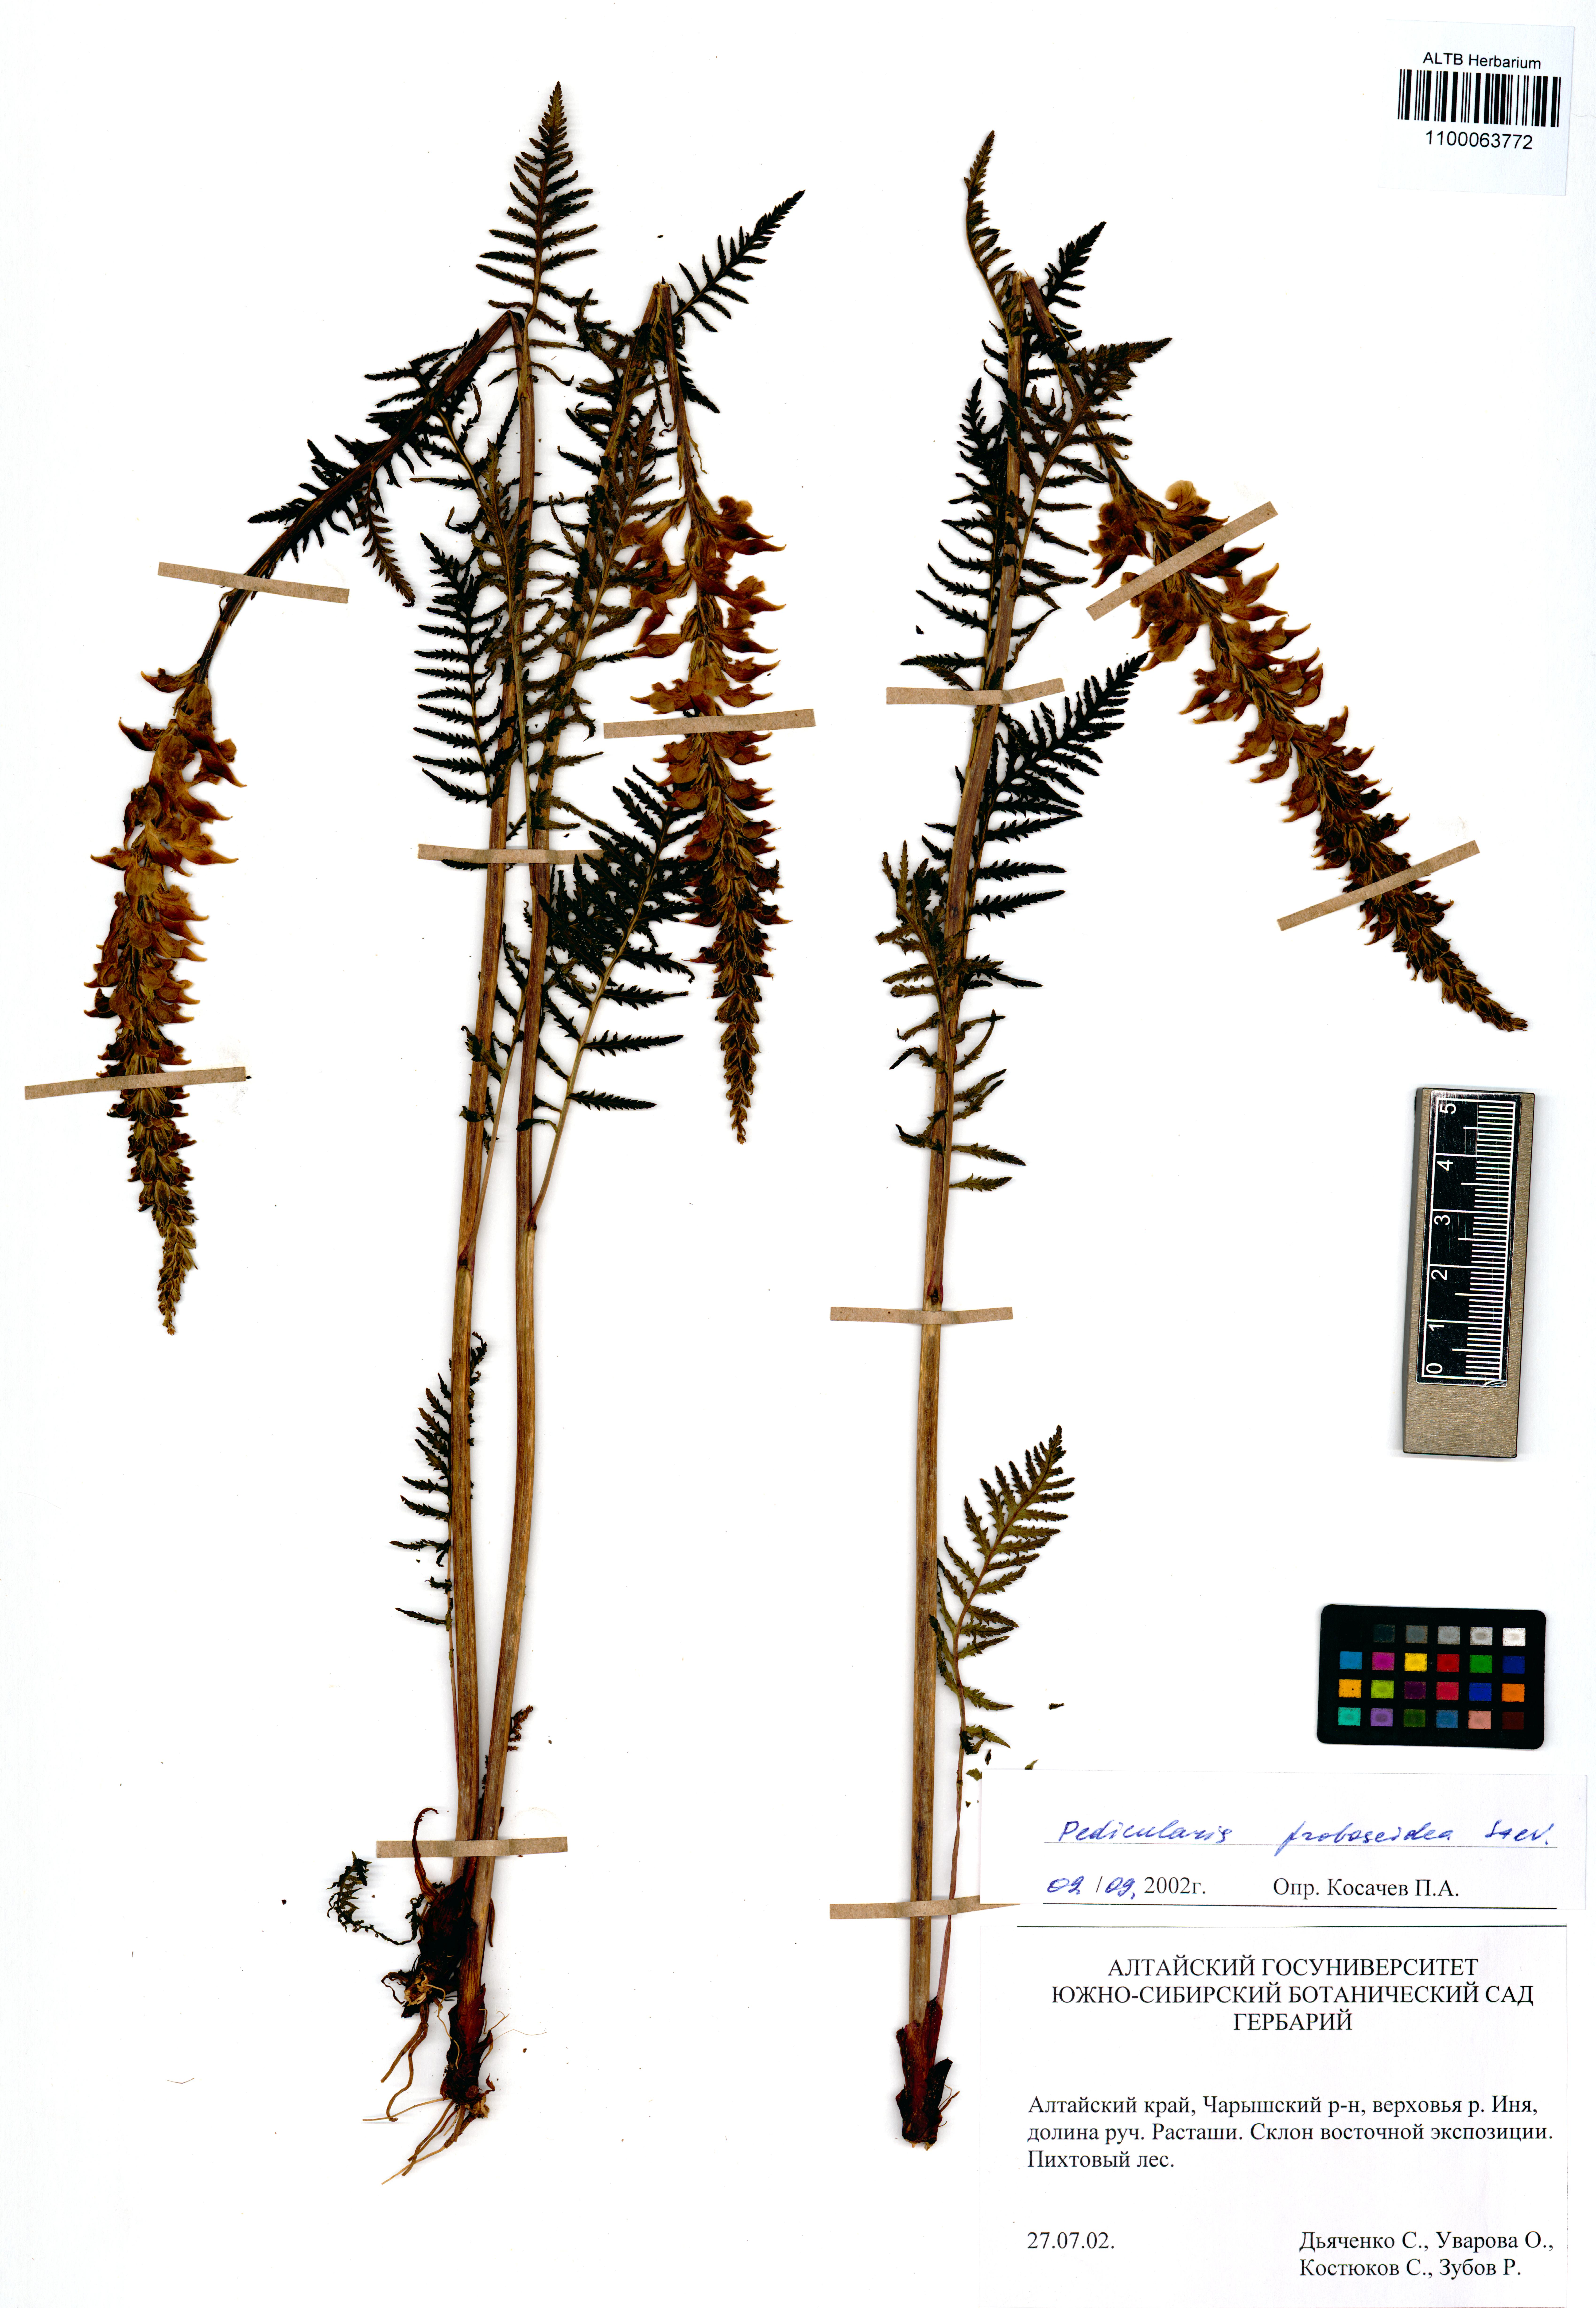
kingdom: Plantae
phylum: Tracheophyta
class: Magnoliopsida
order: Lamiales
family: Orobanchaceae
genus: Pedicularis
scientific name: Pedicularis cenisia
